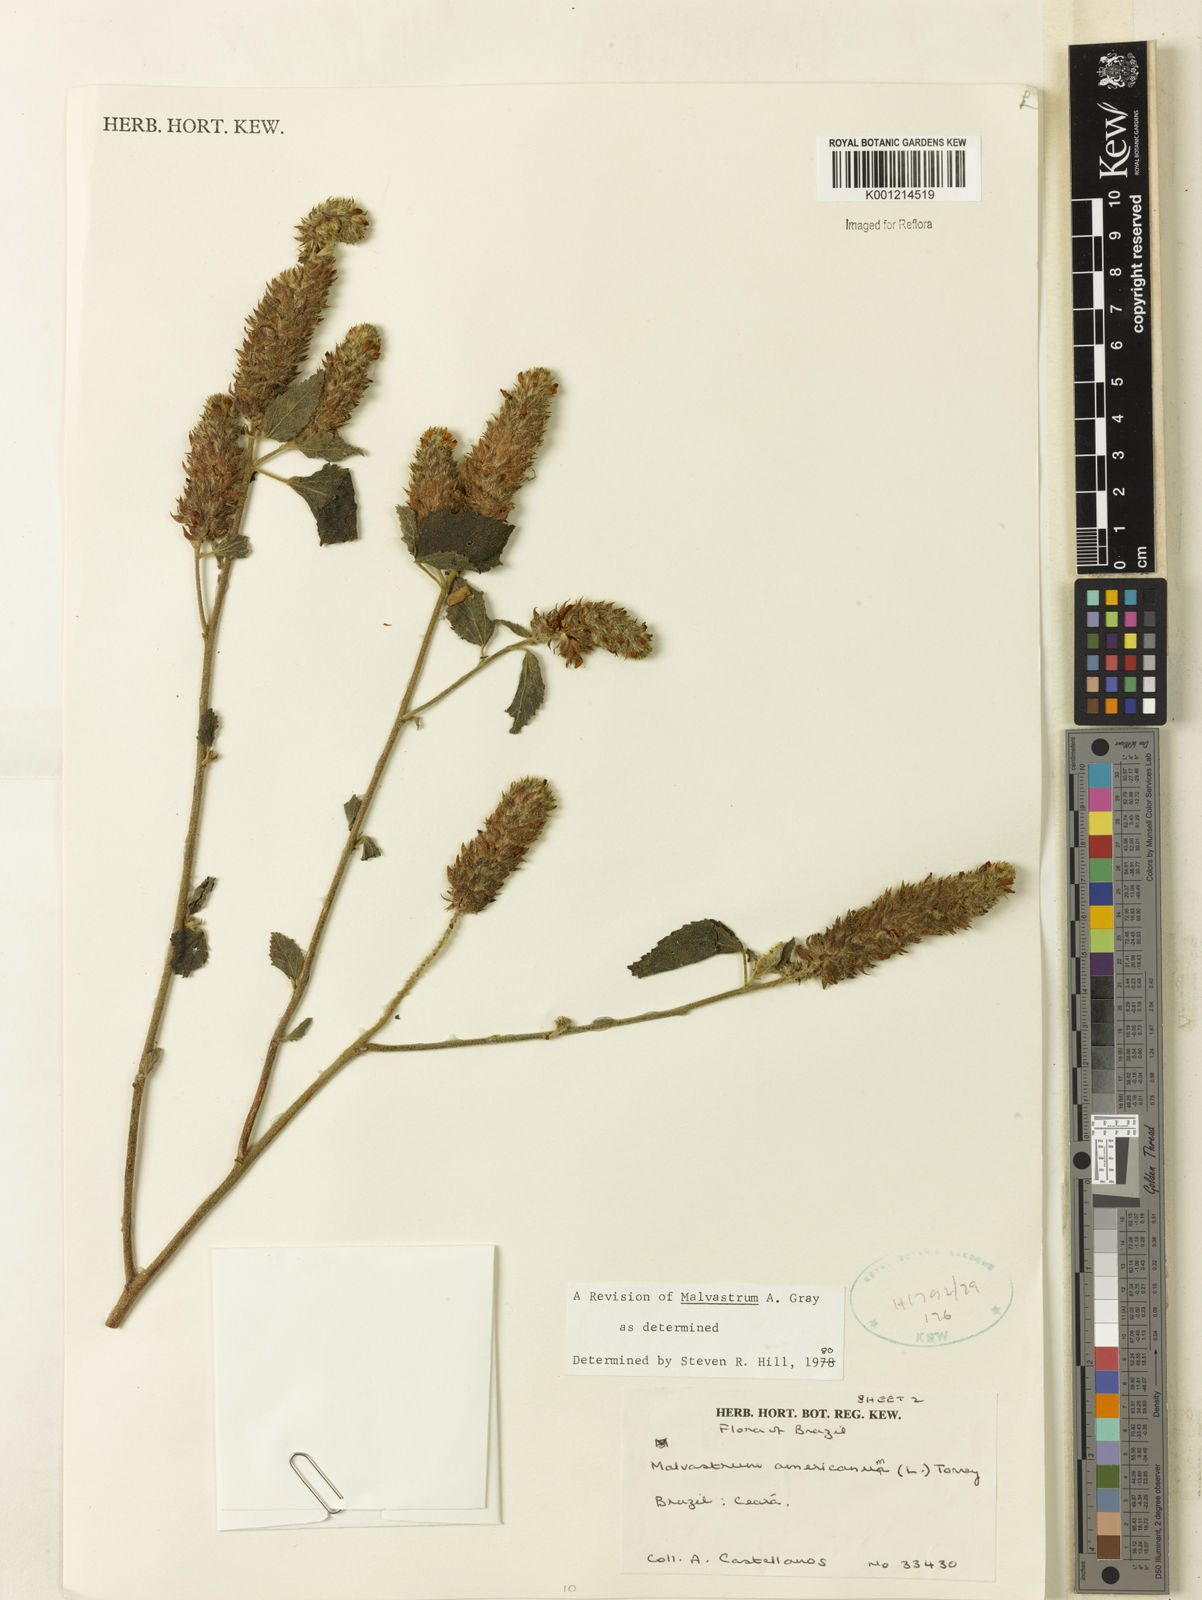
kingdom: Plantae
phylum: Tracheophyta
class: Magnoliopsida
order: Malvales
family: Malvaceae
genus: Malvastrum
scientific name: Malvastrum americanum
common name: Spiked malvastrum
